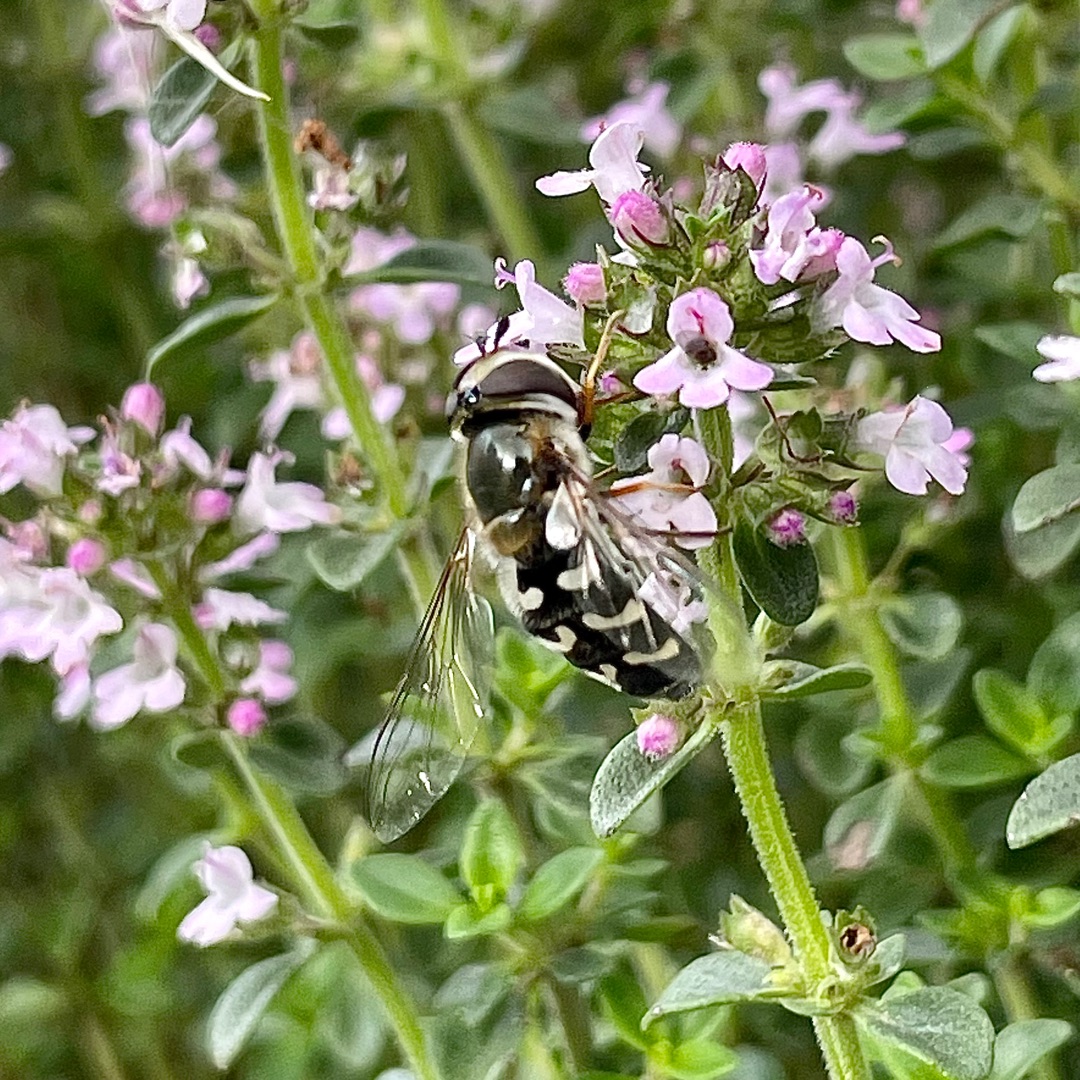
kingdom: Animalia
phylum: Arthropoda
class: Insecta
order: Diptera
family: Syrphidae
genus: Scaeva
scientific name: Scaeva pyrastri
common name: Hvidplettet agersvirreflue
